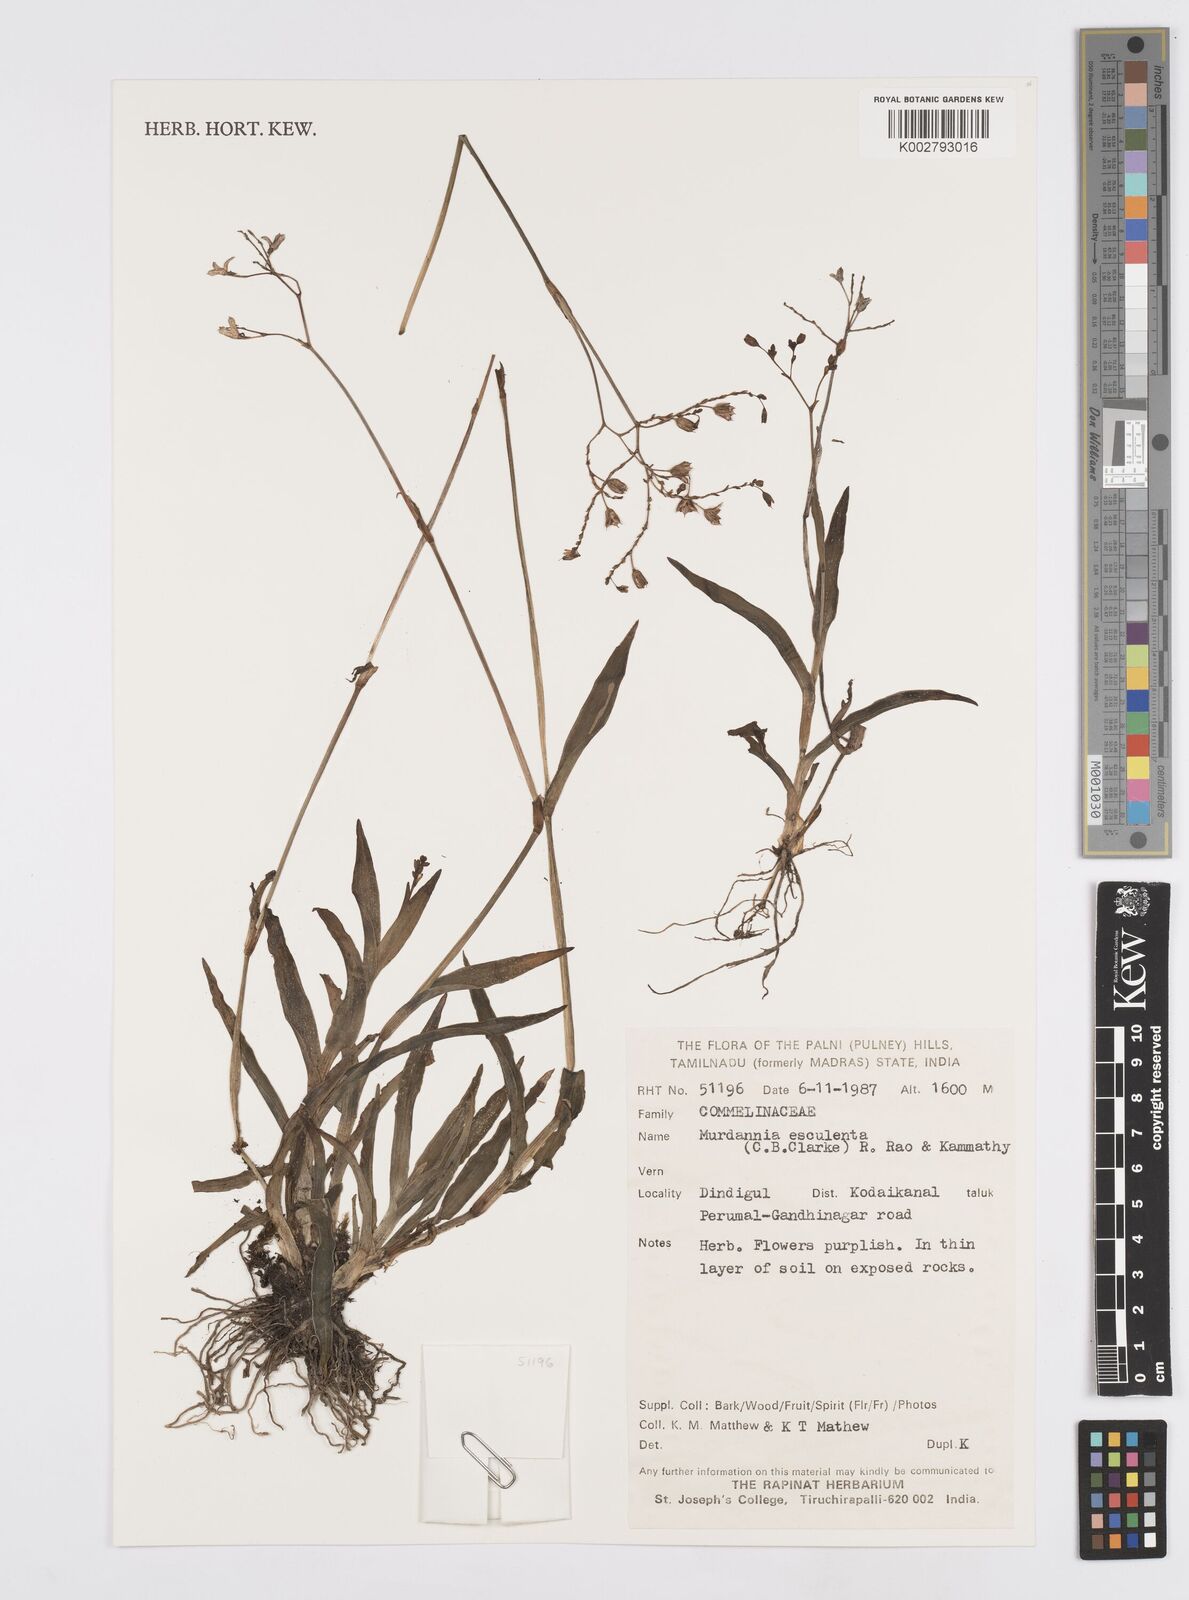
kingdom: Plantae
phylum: Tracheophyta
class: Liliopsida
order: Commelinales
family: Commelinaceae
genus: Murdannia
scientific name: Murdannia esculenta
